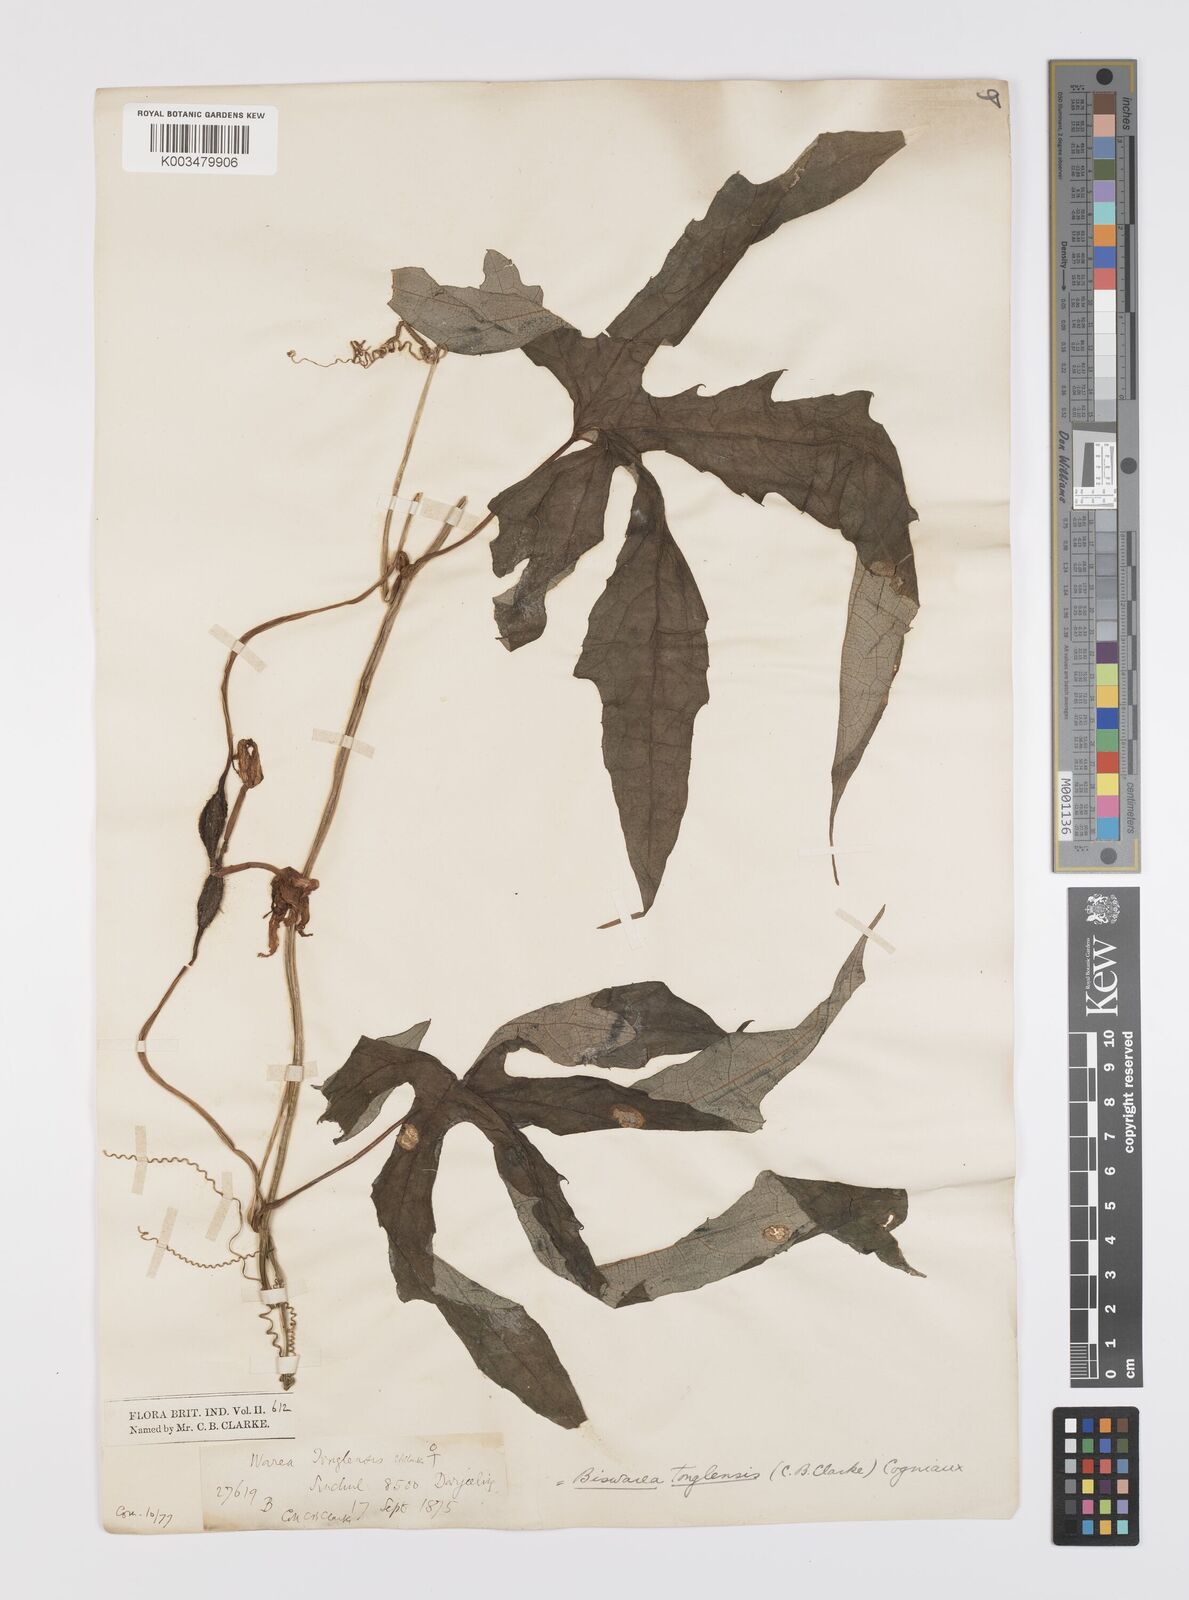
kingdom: Plantae
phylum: Tracheophyta
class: Magnoliopsida
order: Cucurbitales
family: Cucurbitaceae
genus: Benincasa
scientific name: Benincasa
